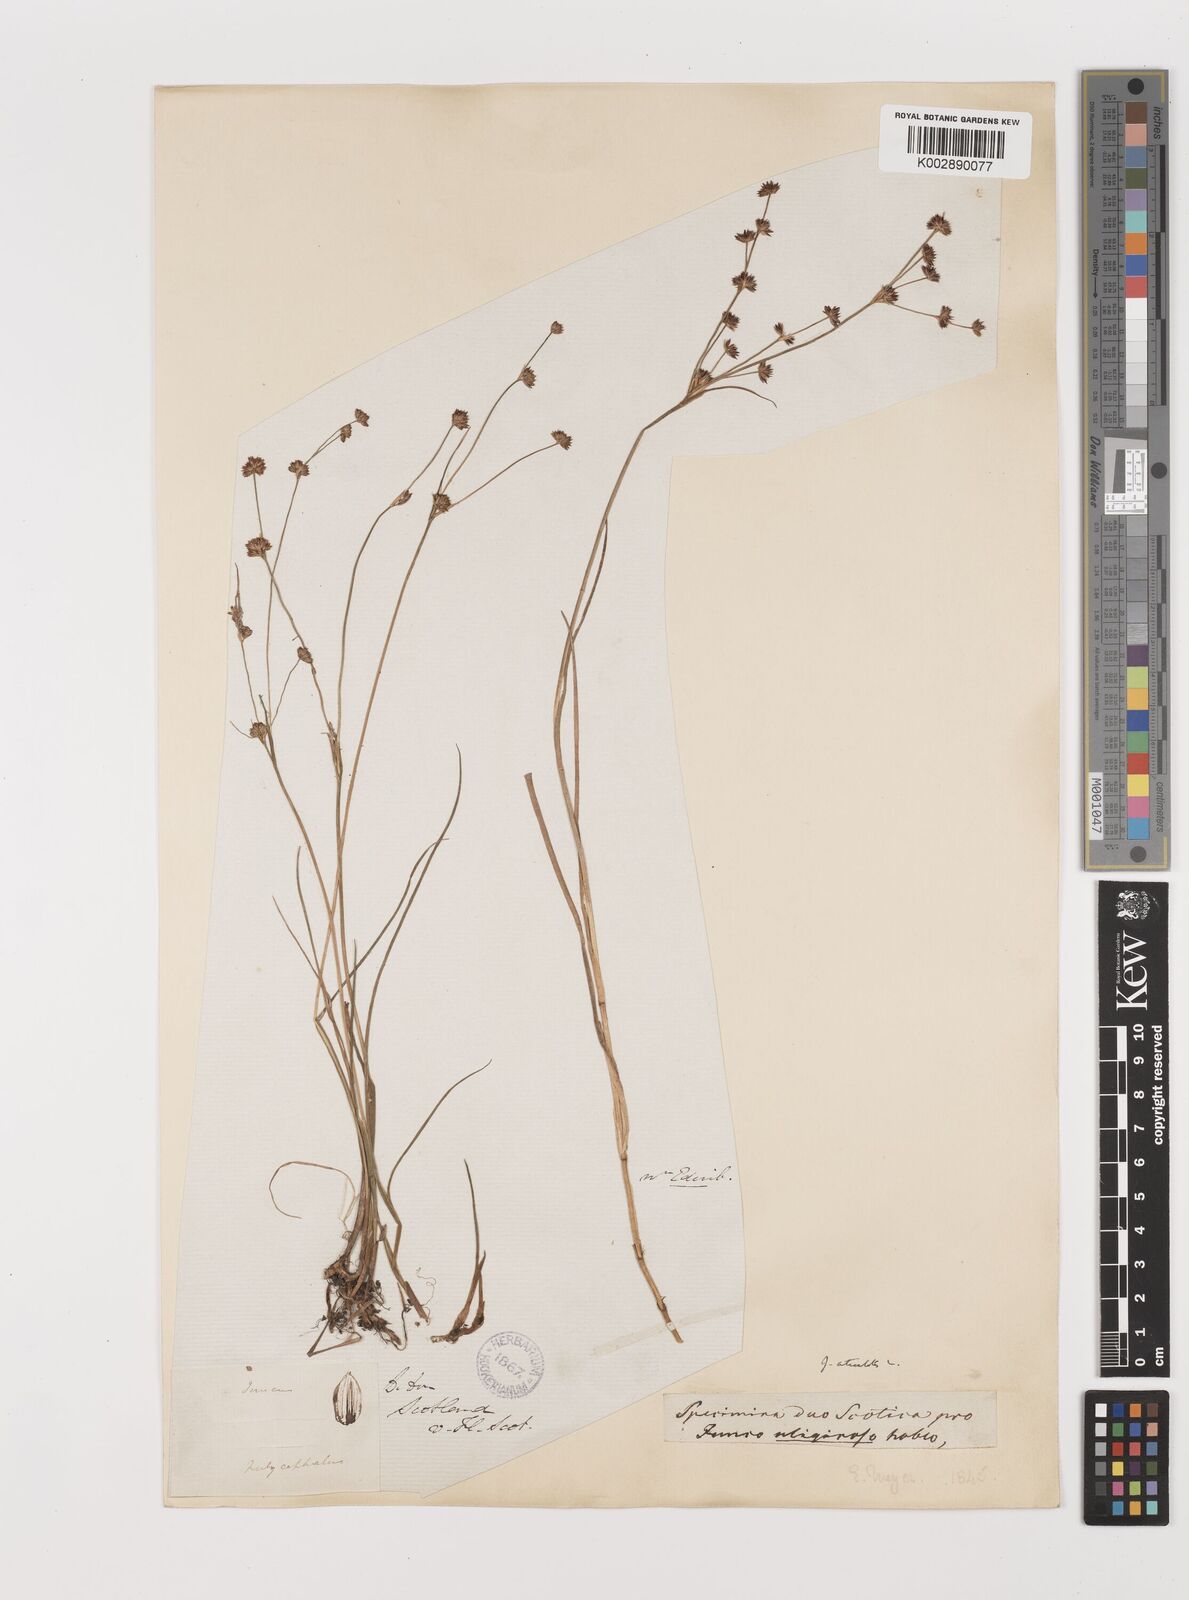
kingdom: Plantae
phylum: Tracheophyta
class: Liliopsida
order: Poales
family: Juncaceae
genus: Juncus
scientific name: Juncus articulatus
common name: Jointed rush
